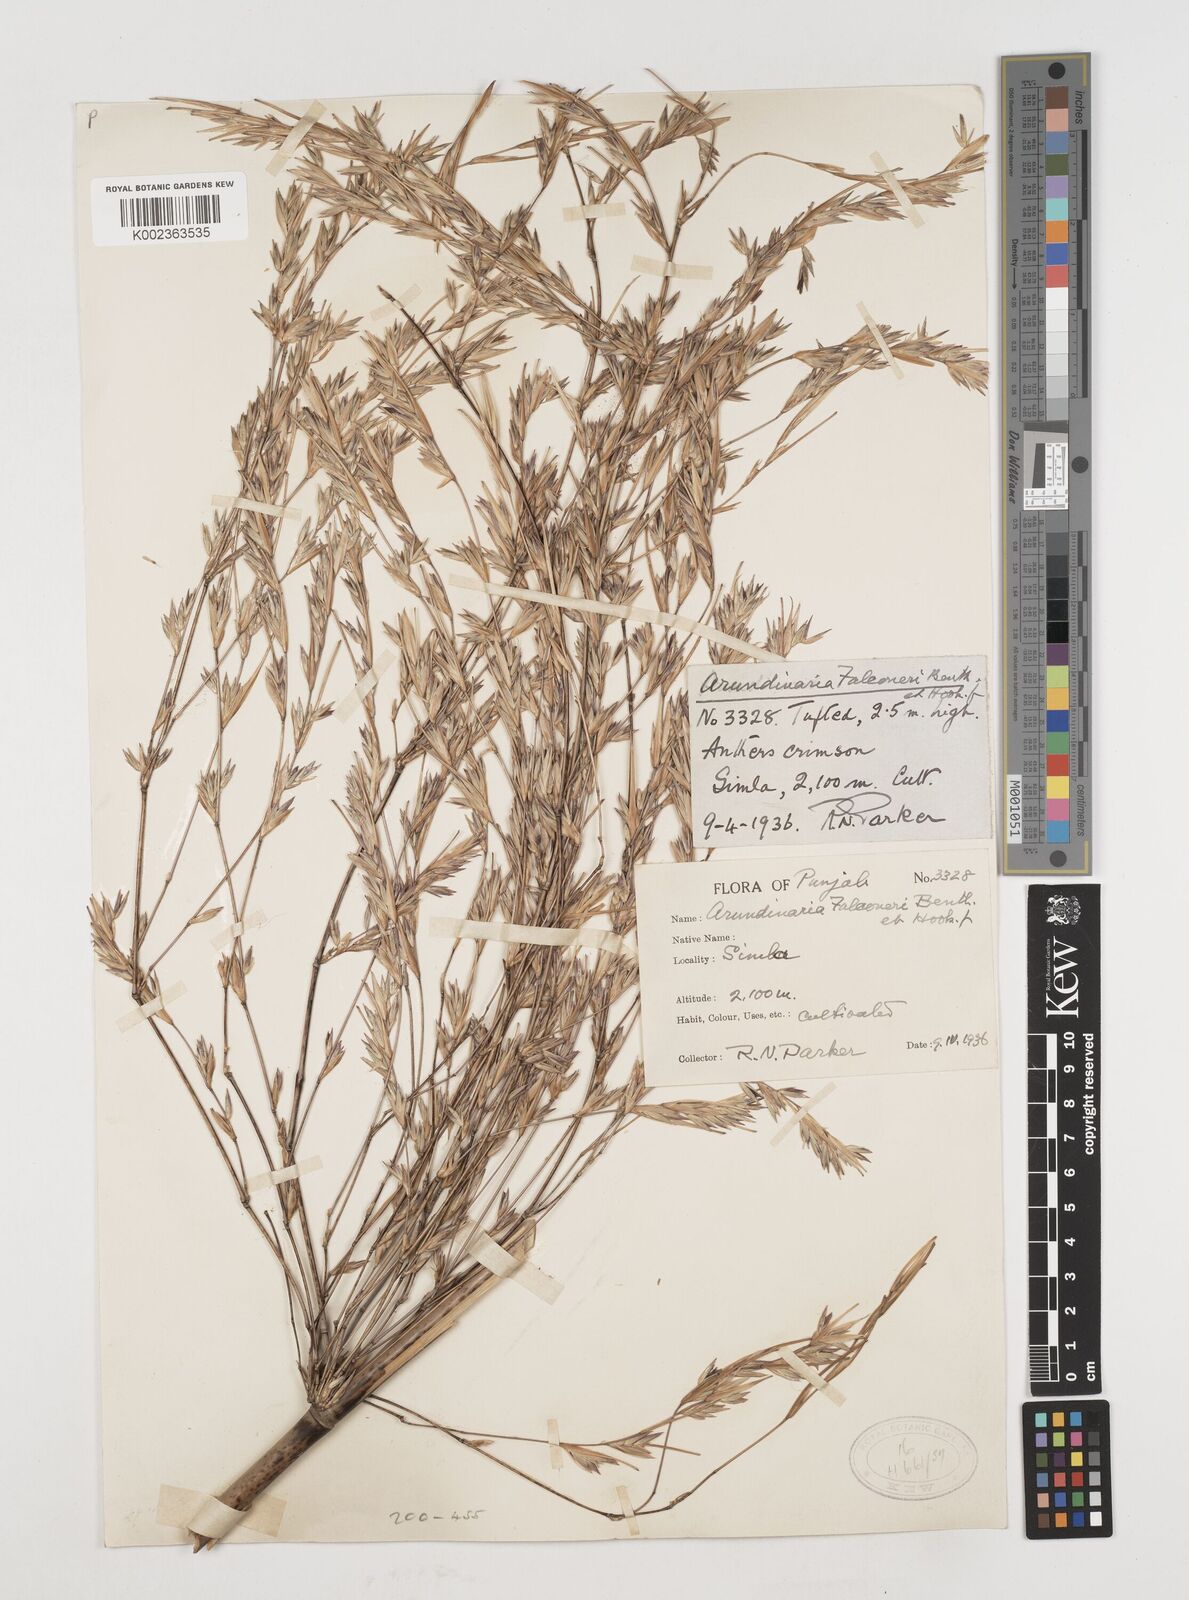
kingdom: Plantae
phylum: Tracheophyta
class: Liliopsida
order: Poales
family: Poaceae
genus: Himalayacalamus
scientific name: Himalayacalamus falconeri
